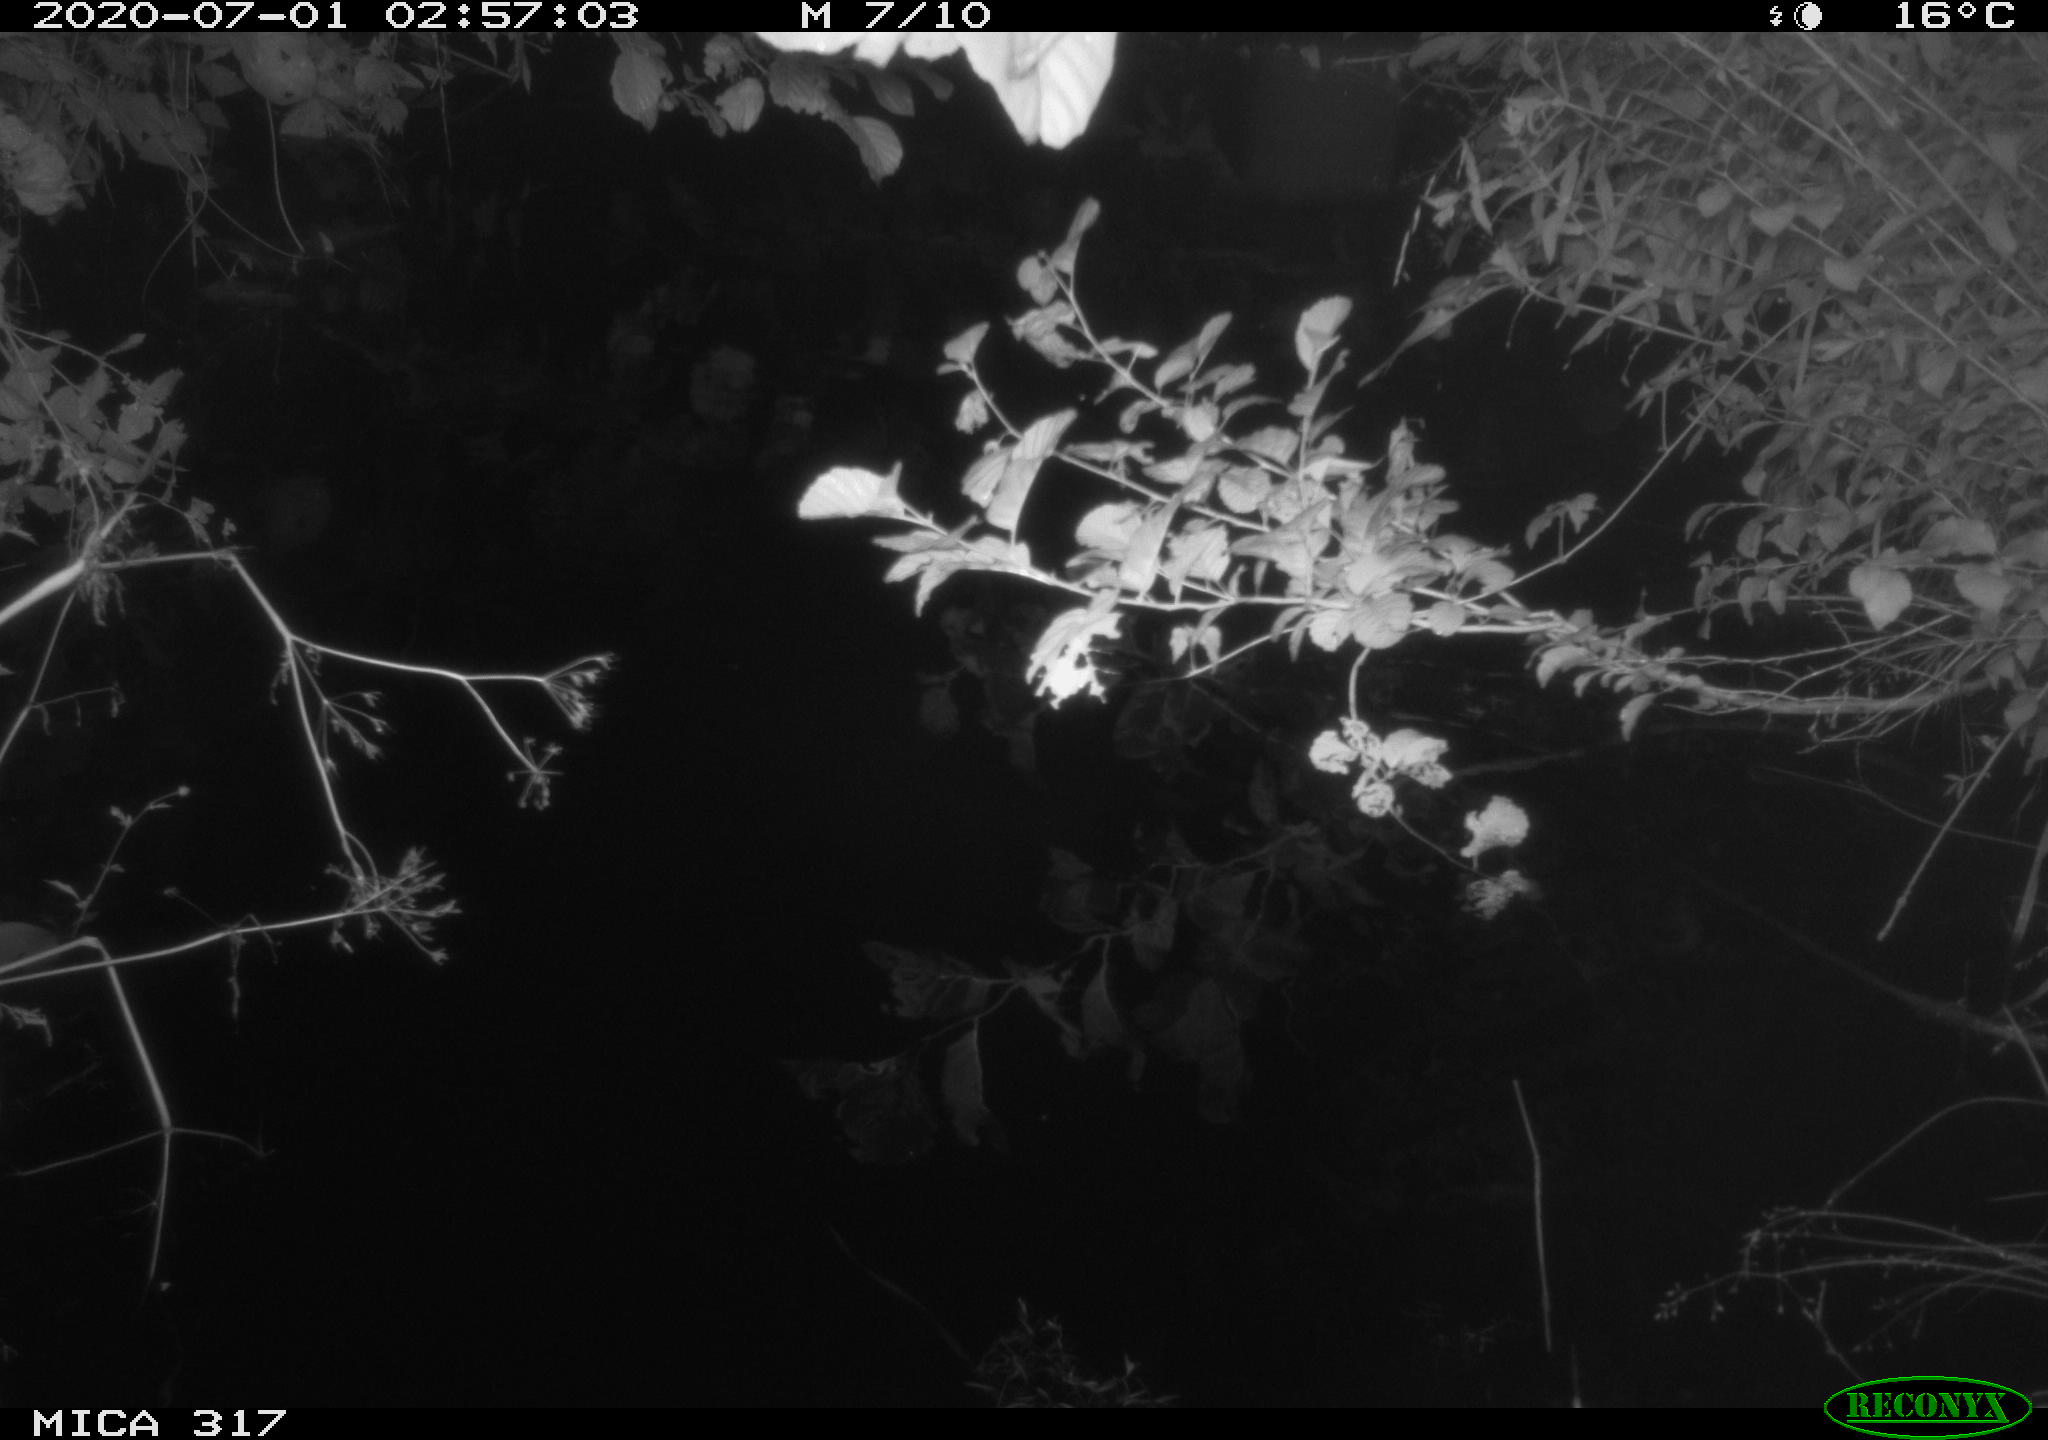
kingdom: Animalia
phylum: Chordata
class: Aves
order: Anseriformes
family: Anatidae
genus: Anas
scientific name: Anas platyrhynchos
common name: Mallard
